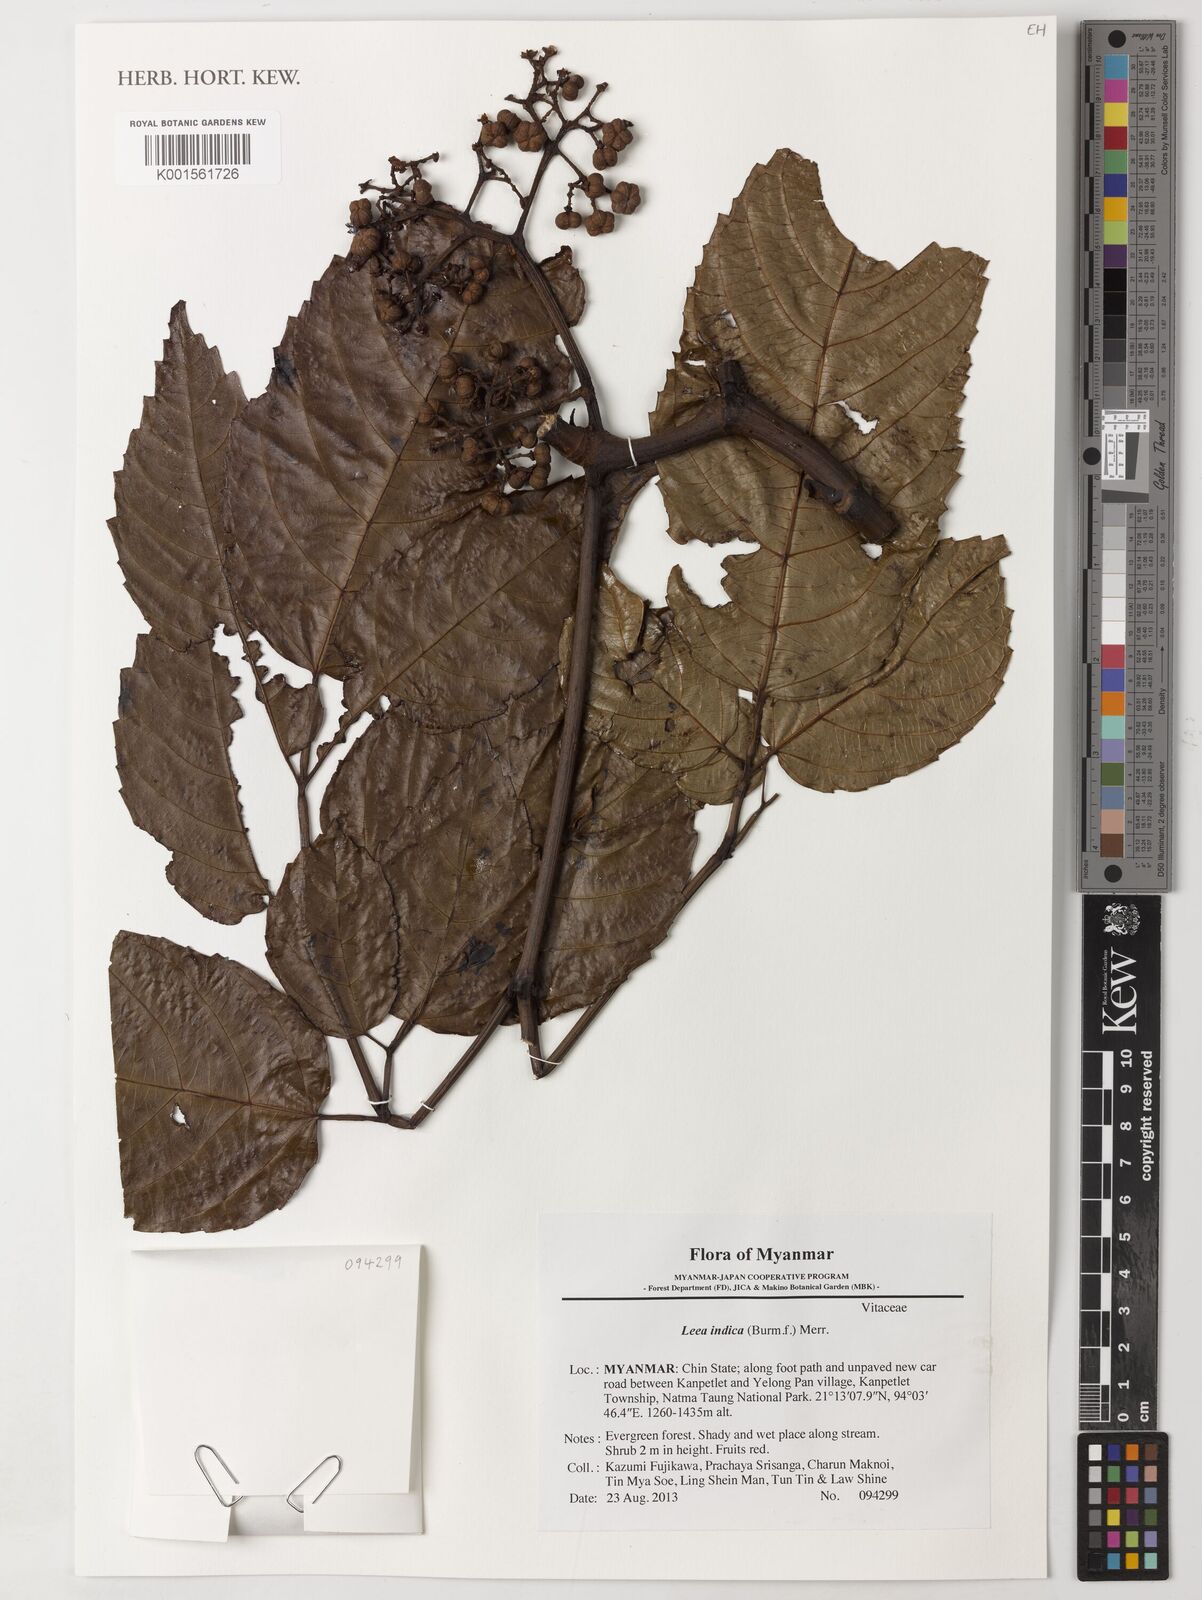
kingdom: Plantae
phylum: Tracheophyta
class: Magnoliopsida
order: Vitales
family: Vitaceae
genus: Leea
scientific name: Leea indica
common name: Bandicoot-berry
